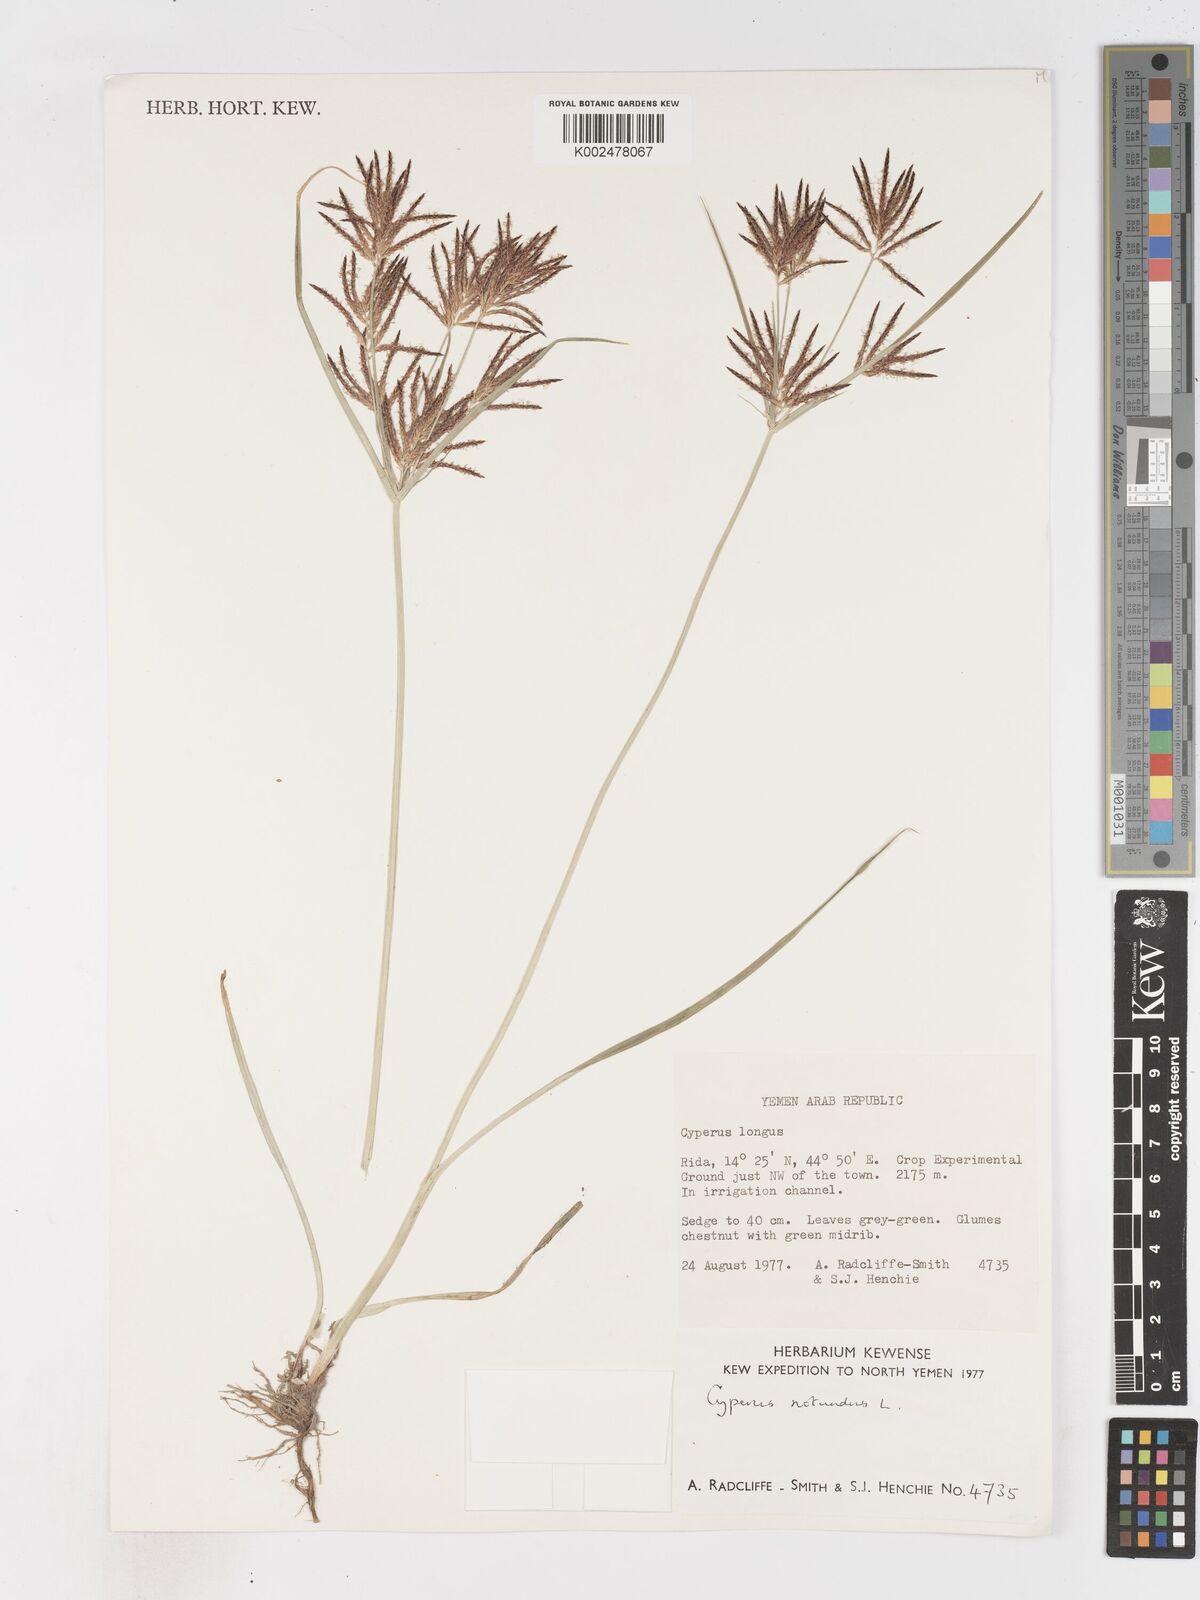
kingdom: Plantae
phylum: Tracheophyta
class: Liliopsida
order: Poales
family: Cyperaceae
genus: Cyperus
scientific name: Cyperus rotundus
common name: Nutgrass
